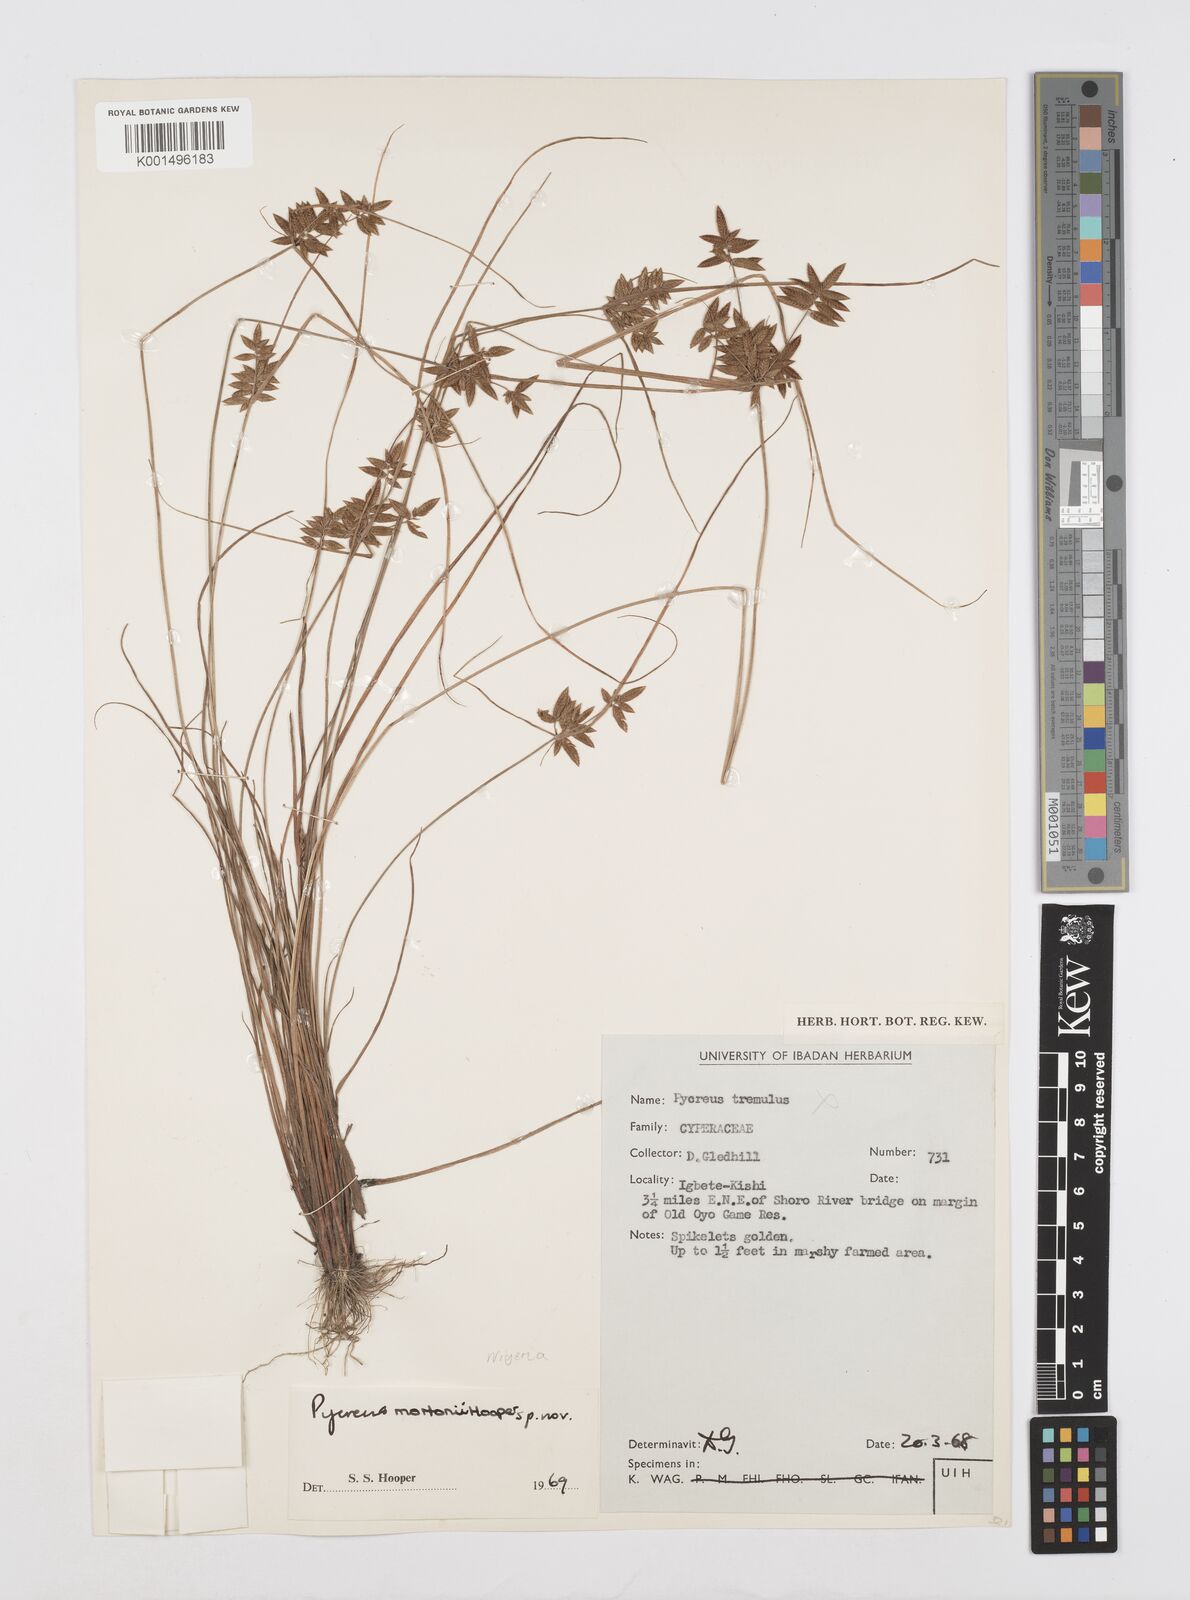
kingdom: Plantae
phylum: Tracheophyta
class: Liliopsida
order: Poales
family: Cyperaceae
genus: Cyperus
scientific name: Cyperus mortonii
